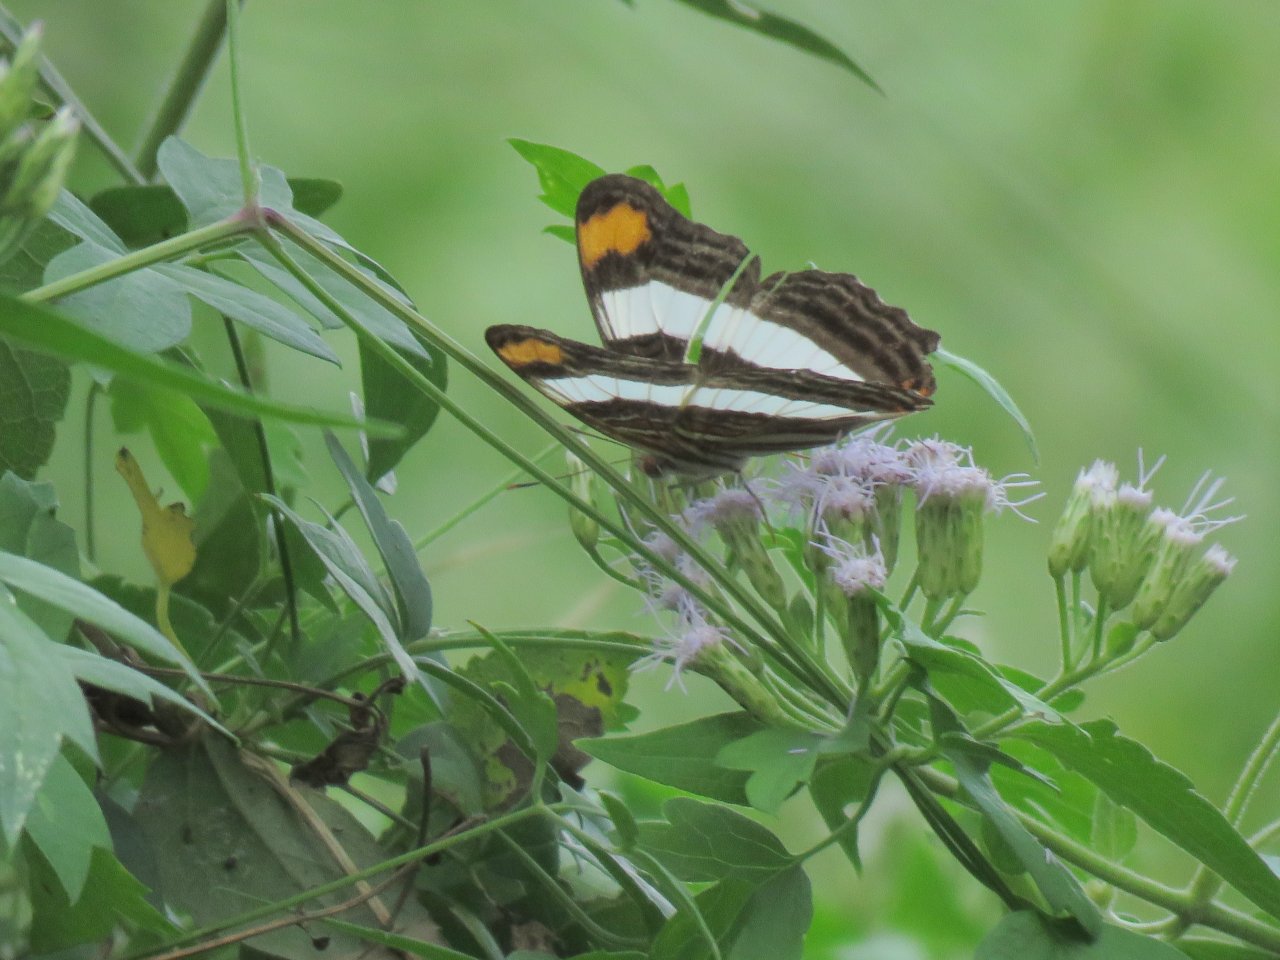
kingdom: Animalia
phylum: Arthropoda
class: Insecta
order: Lepidoptera
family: Nymphalidae
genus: Limenitis
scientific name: Limenitis Adelpha basiloides
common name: Spot-celled Sister
